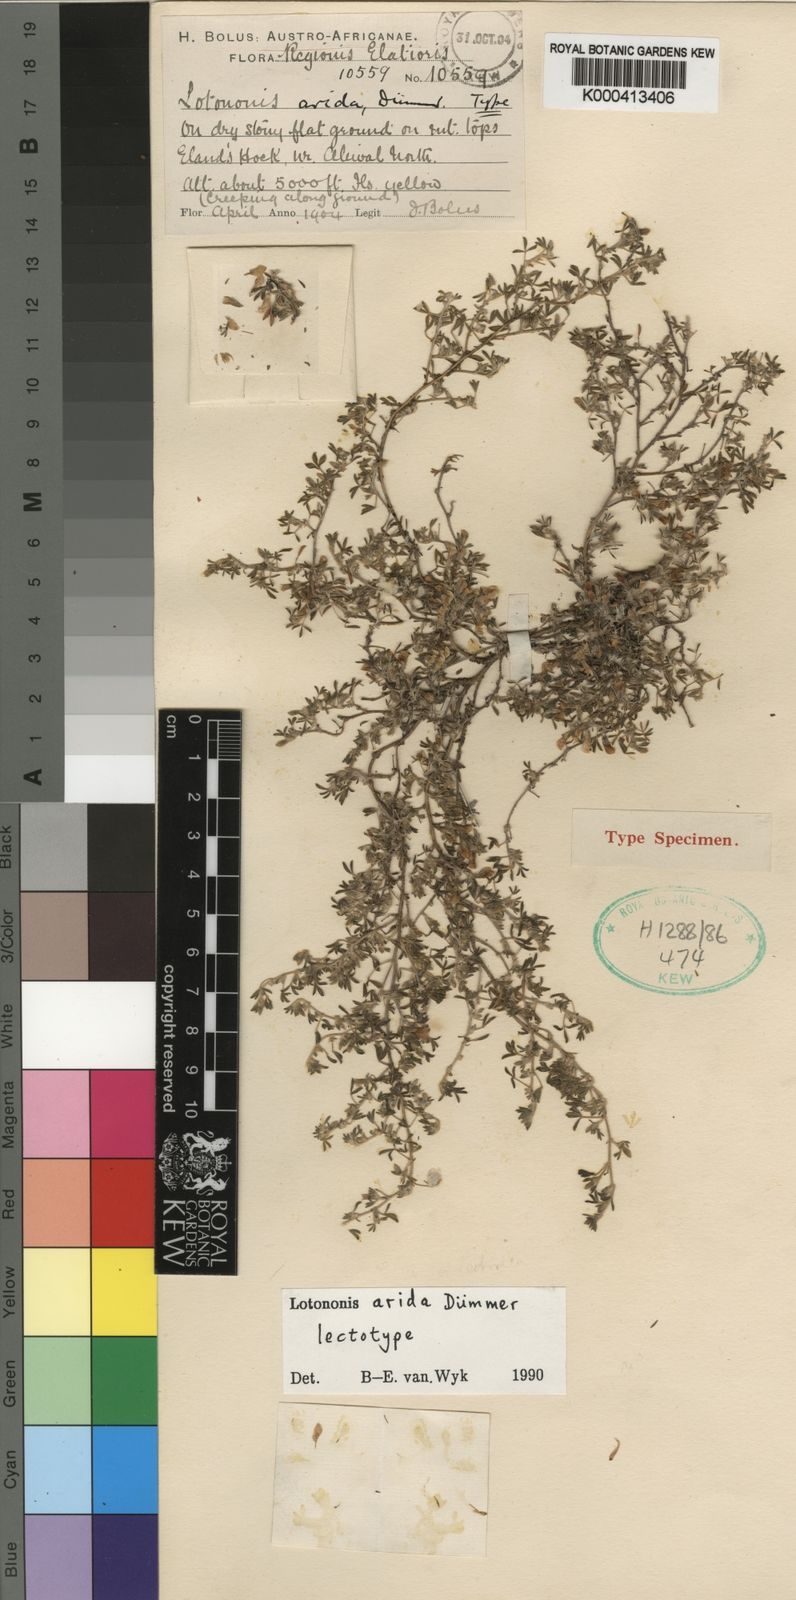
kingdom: Plantae
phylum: Tracheophyta
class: Magnoliopsida
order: Fabales
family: Fabaceae
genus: Leobordea
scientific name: Leobordea arida
